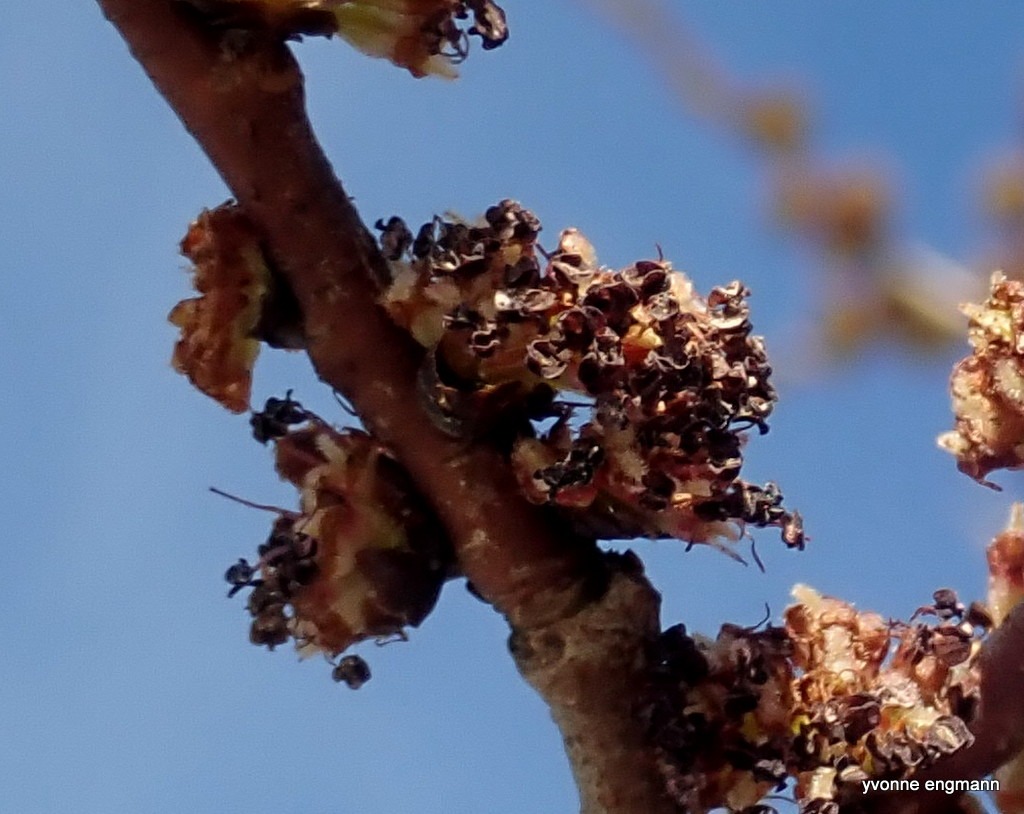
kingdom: Plantae
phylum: Tracheophyta
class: Magnoliopsida
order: Rosales
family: Ulmaceae
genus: Ulmus
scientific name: Ulmus glabra
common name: Skov-elm/storbladet elm
